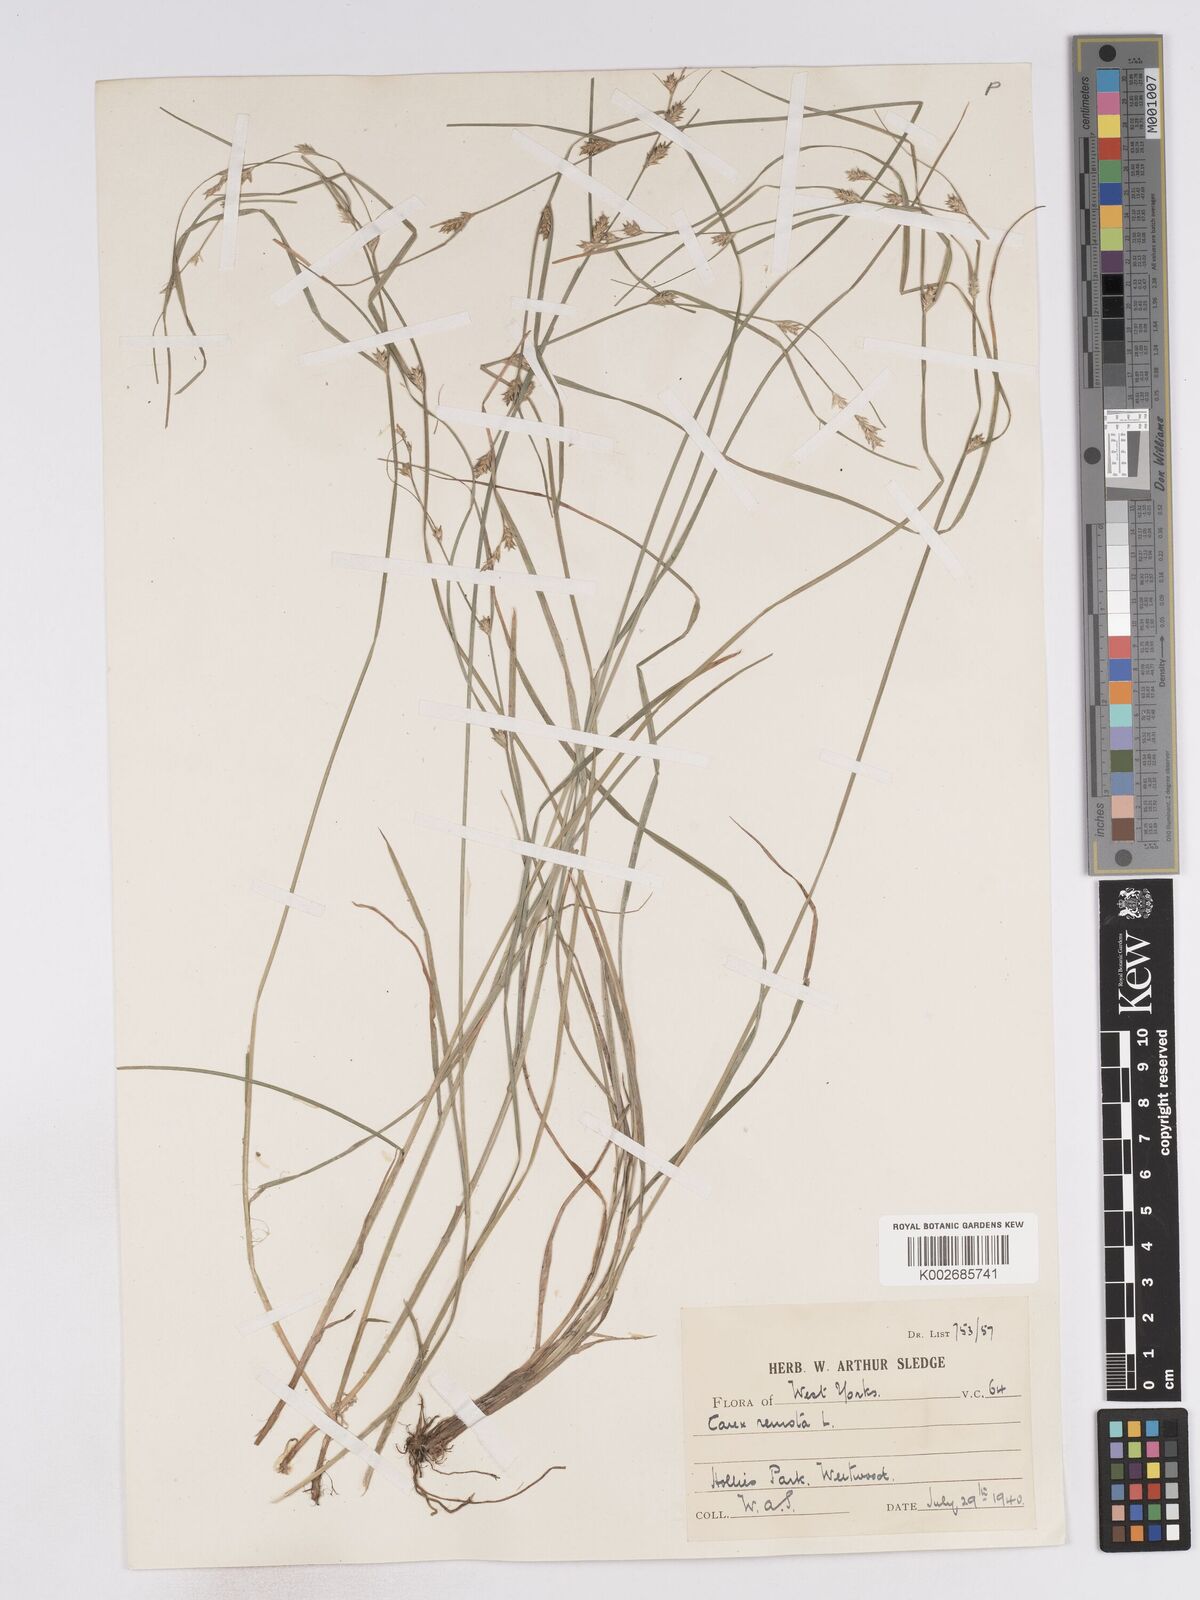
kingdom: Plantae
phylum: Tracheophyta
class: Liliopsida
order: Poales
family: Cyperaceae
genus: Carex
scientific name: Carex remota
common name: Remote sedge
